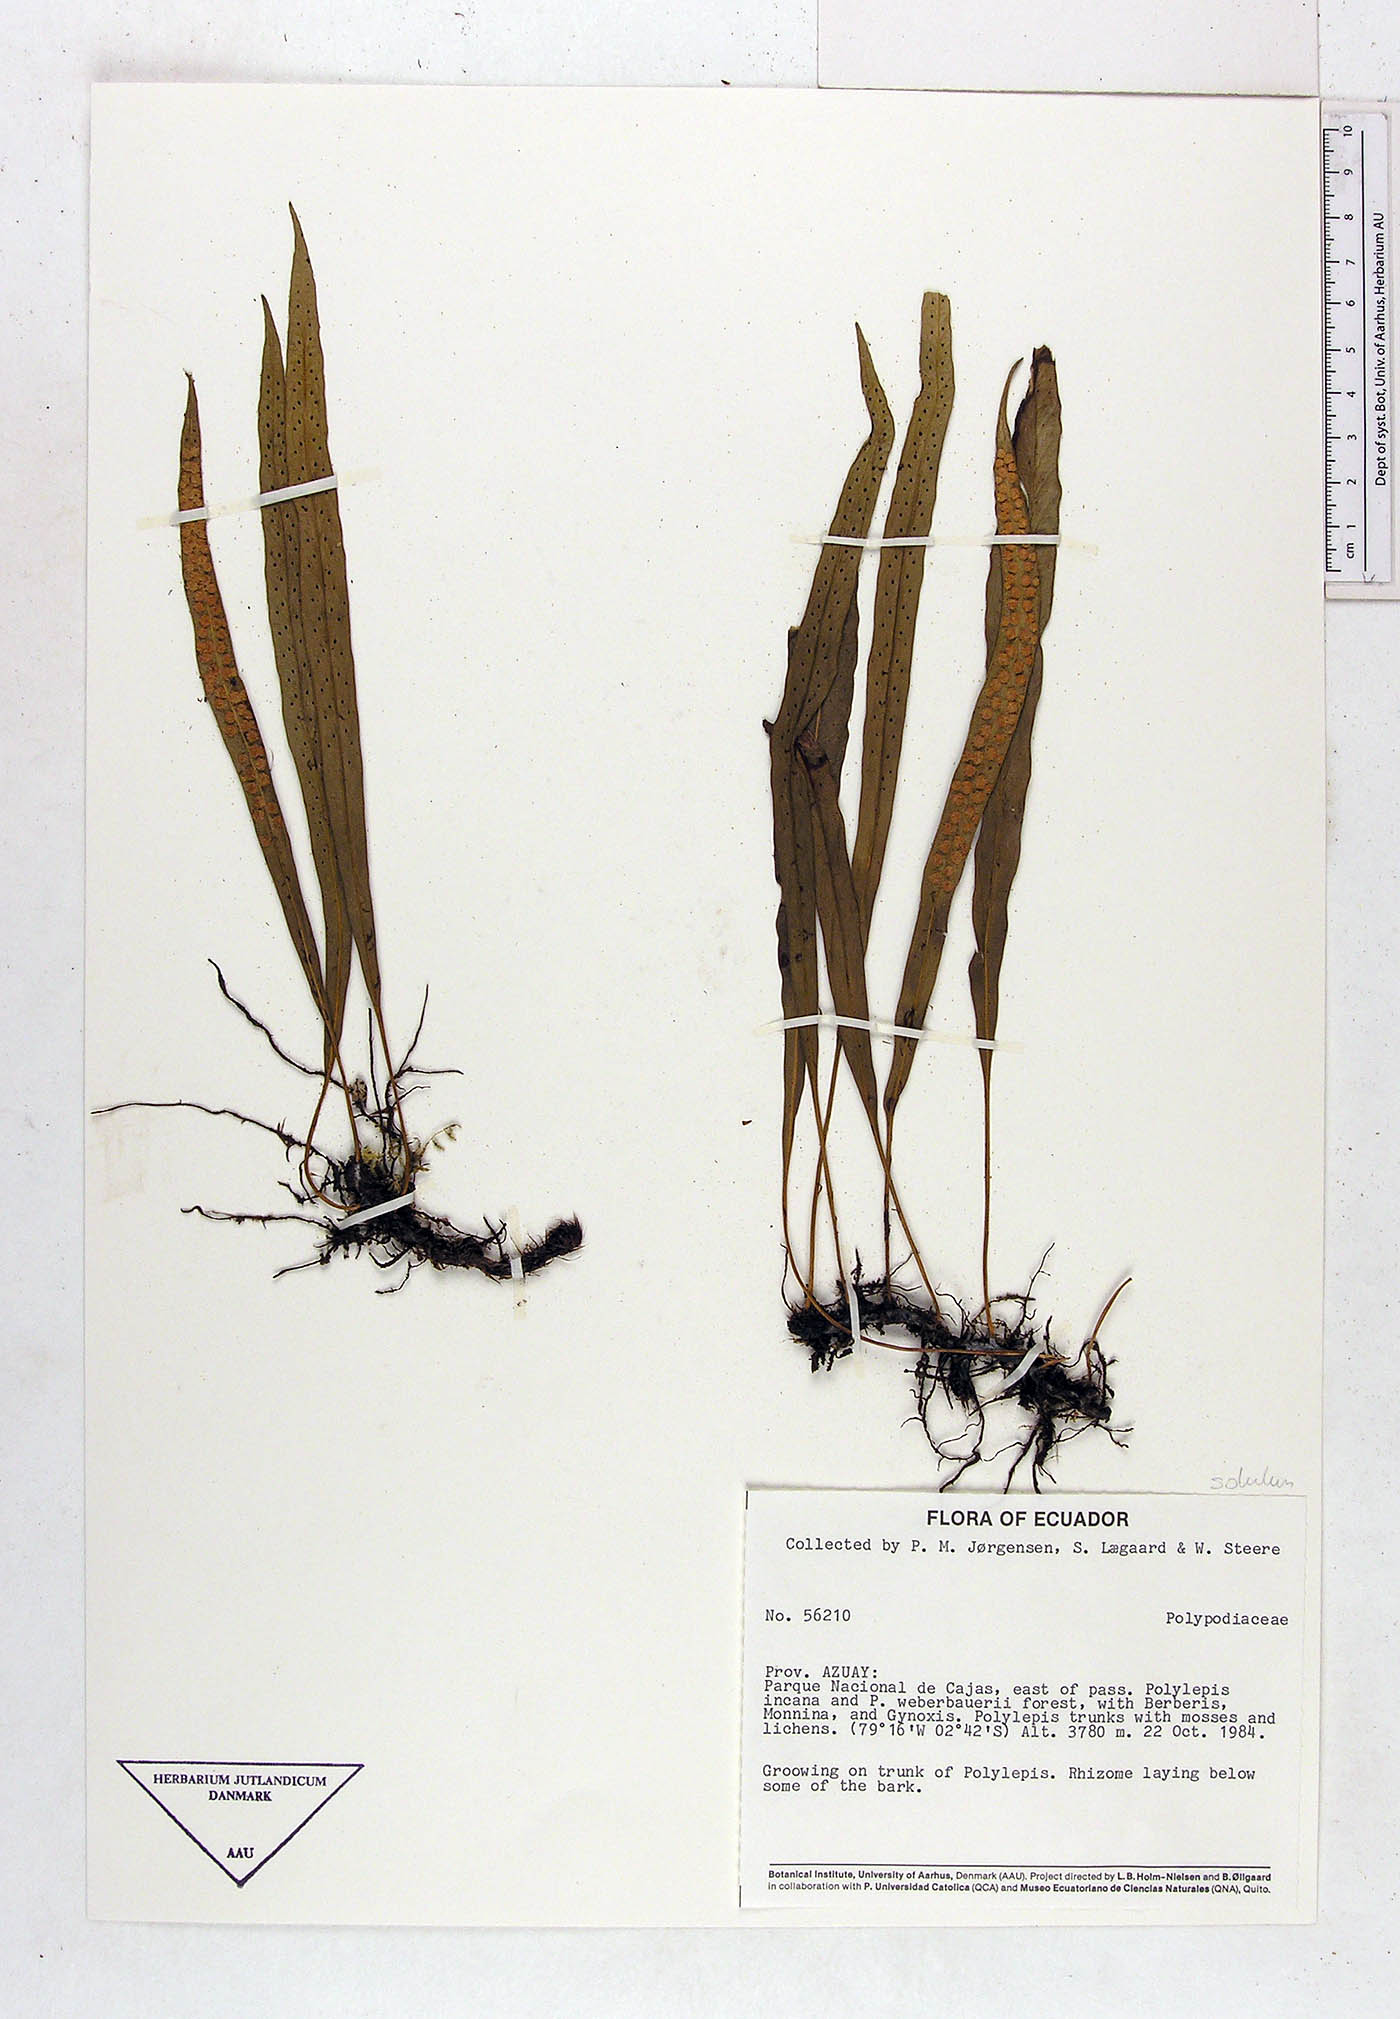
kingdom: Plantae
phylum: Tracheophyta
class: Polypodiopsida
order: Polypodiales
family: Polypodiaceae
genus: Campyloneurum
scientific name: Campyloneurum solutum
